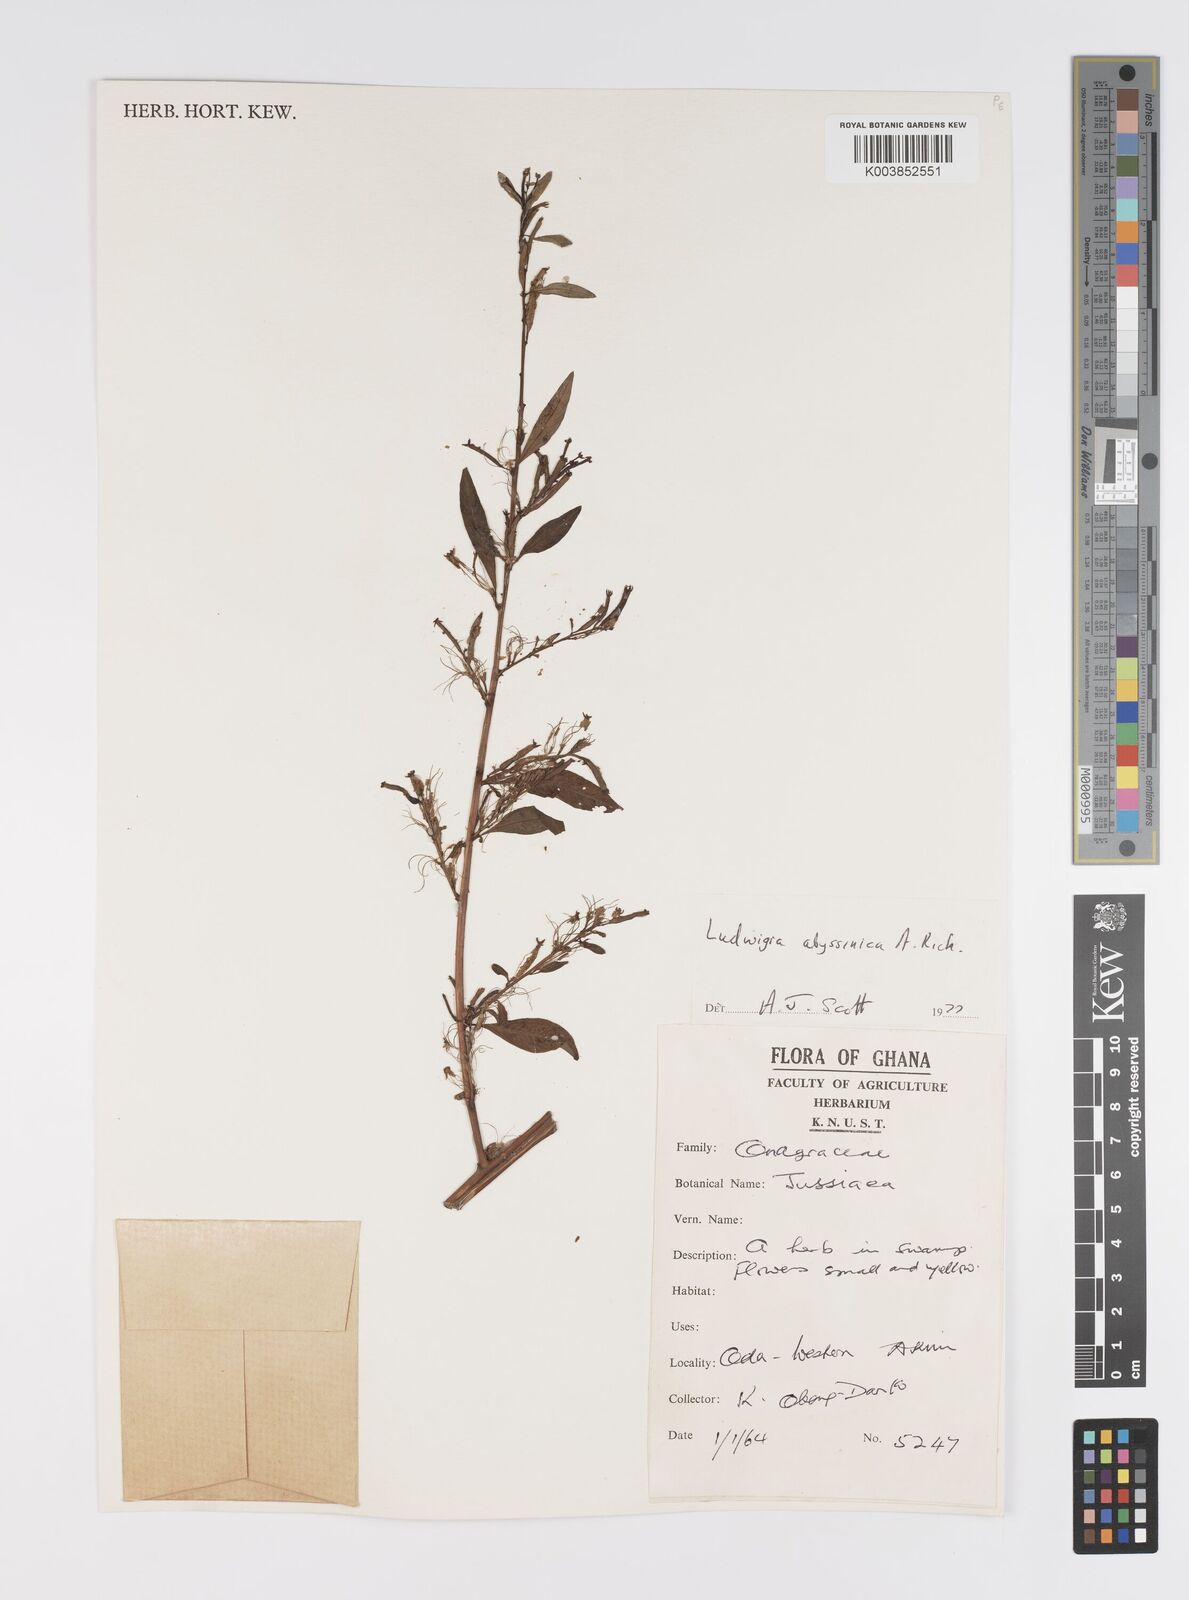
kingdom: Plantae
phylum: Tracheophyta
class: Magnoliopsida
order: Myrtales
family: Onagraceae
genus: Ludwigia
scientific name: Ludwigia abyssinica
